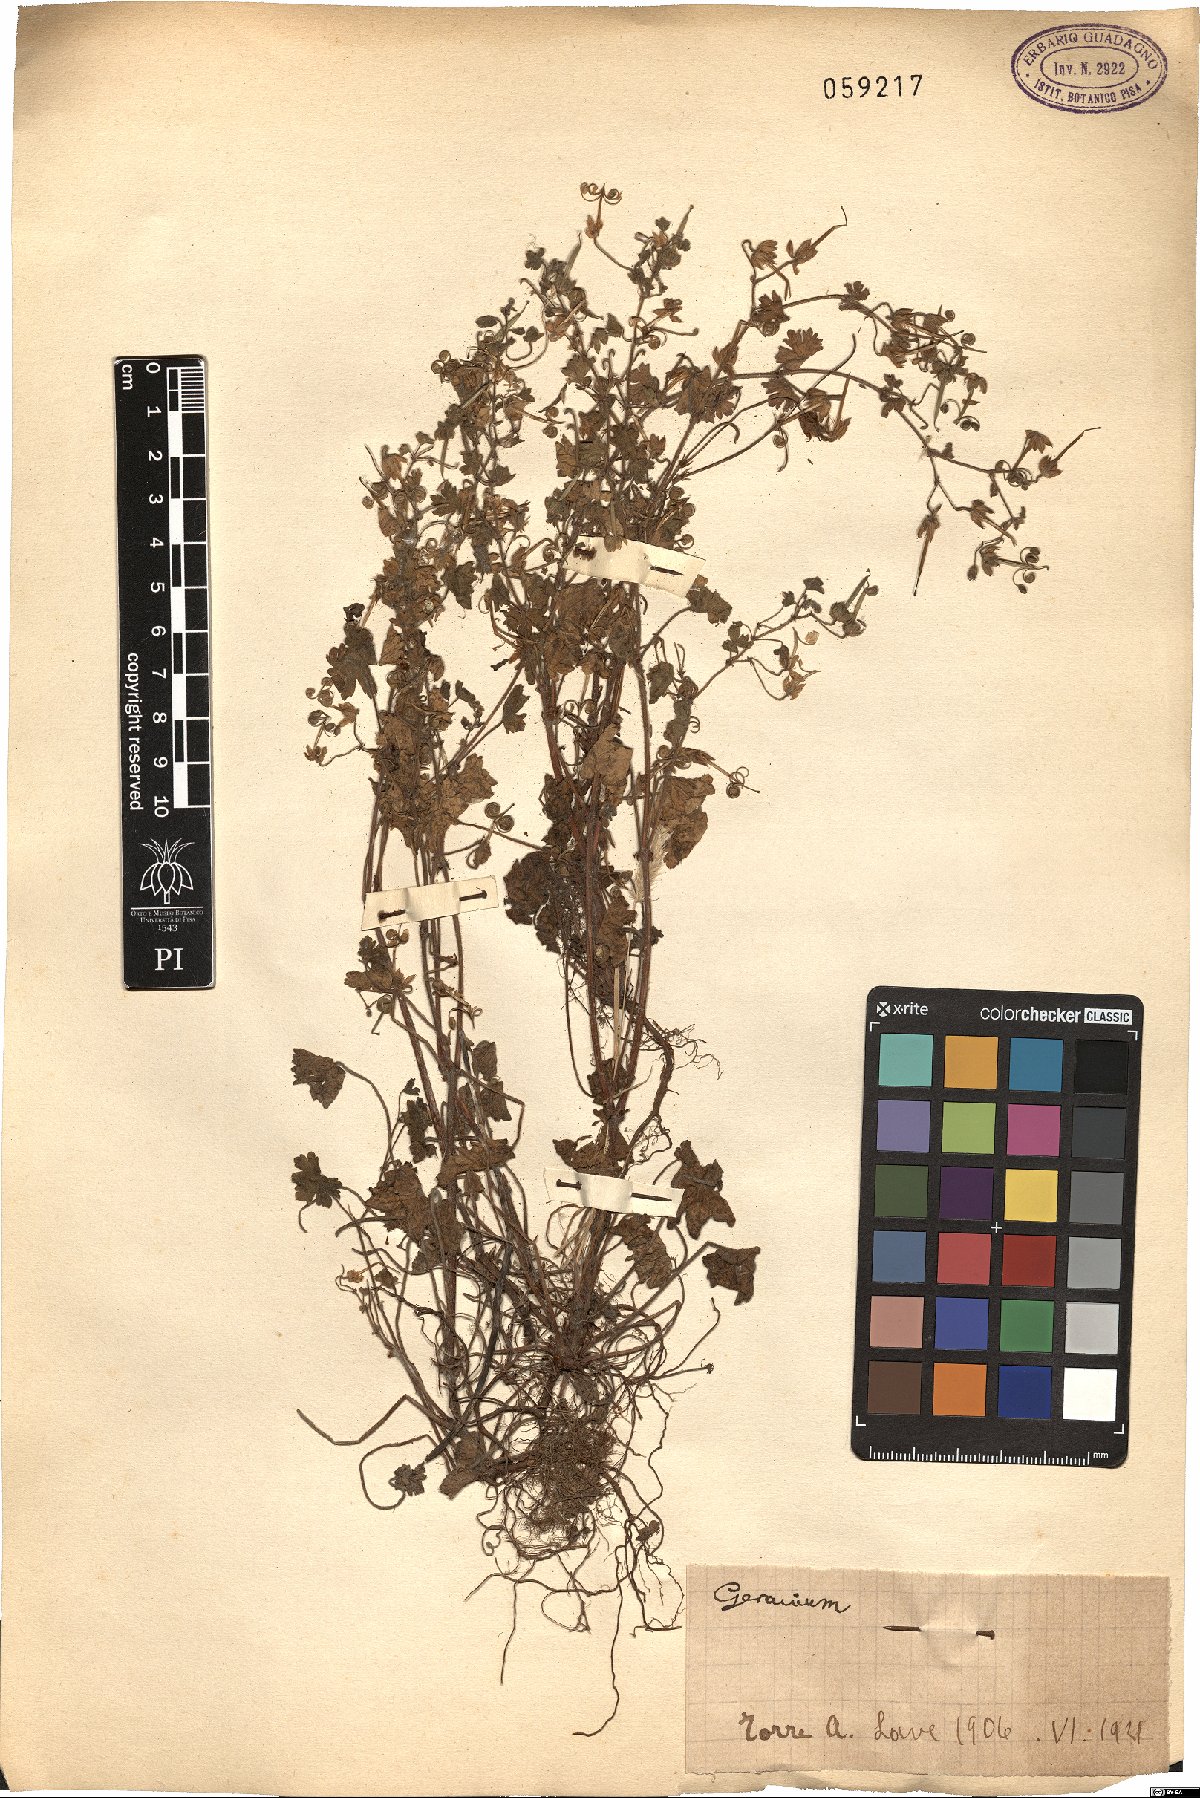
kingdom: Plantae
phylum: Tracheophyta
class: Magnoliopsida
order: Geraniales
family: Geraniaceae
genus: Geranium
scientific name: Geranium
